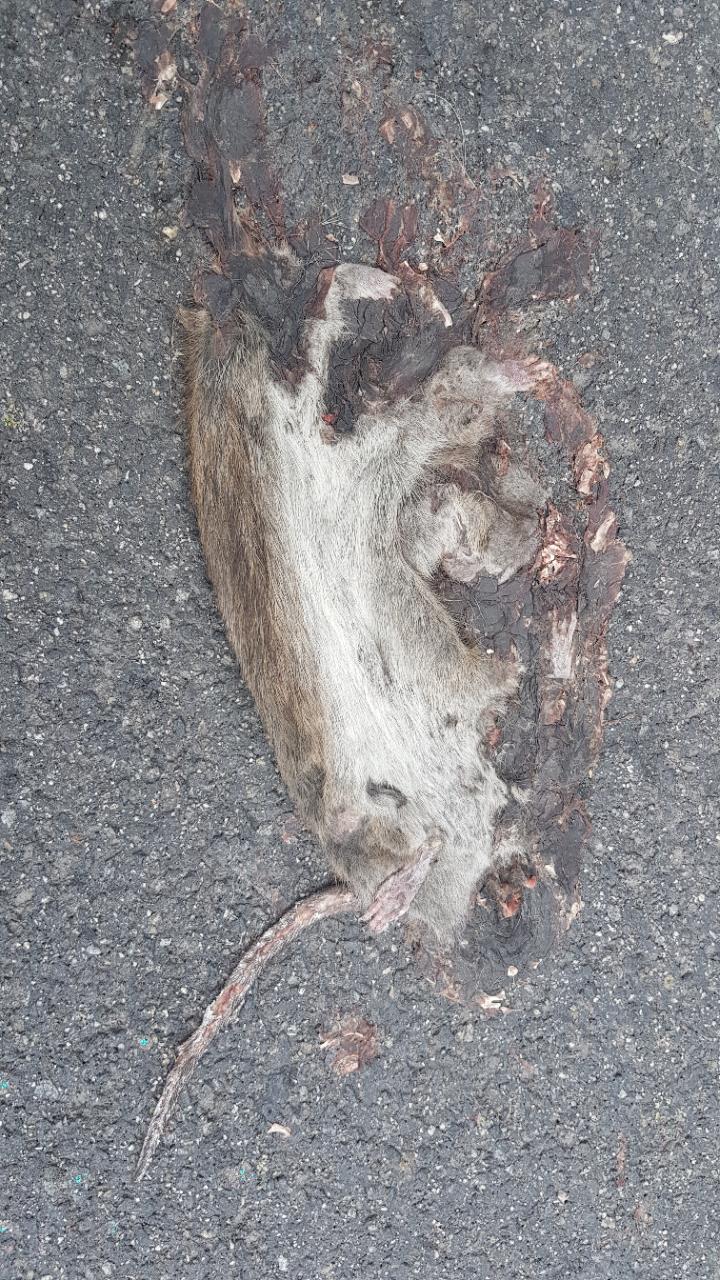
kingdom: Animalia
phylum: Chordata
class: Mammalia
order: Rodentia
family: Muridae
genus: Rattus
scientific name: Rattus norvegicus
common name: Brown rat
